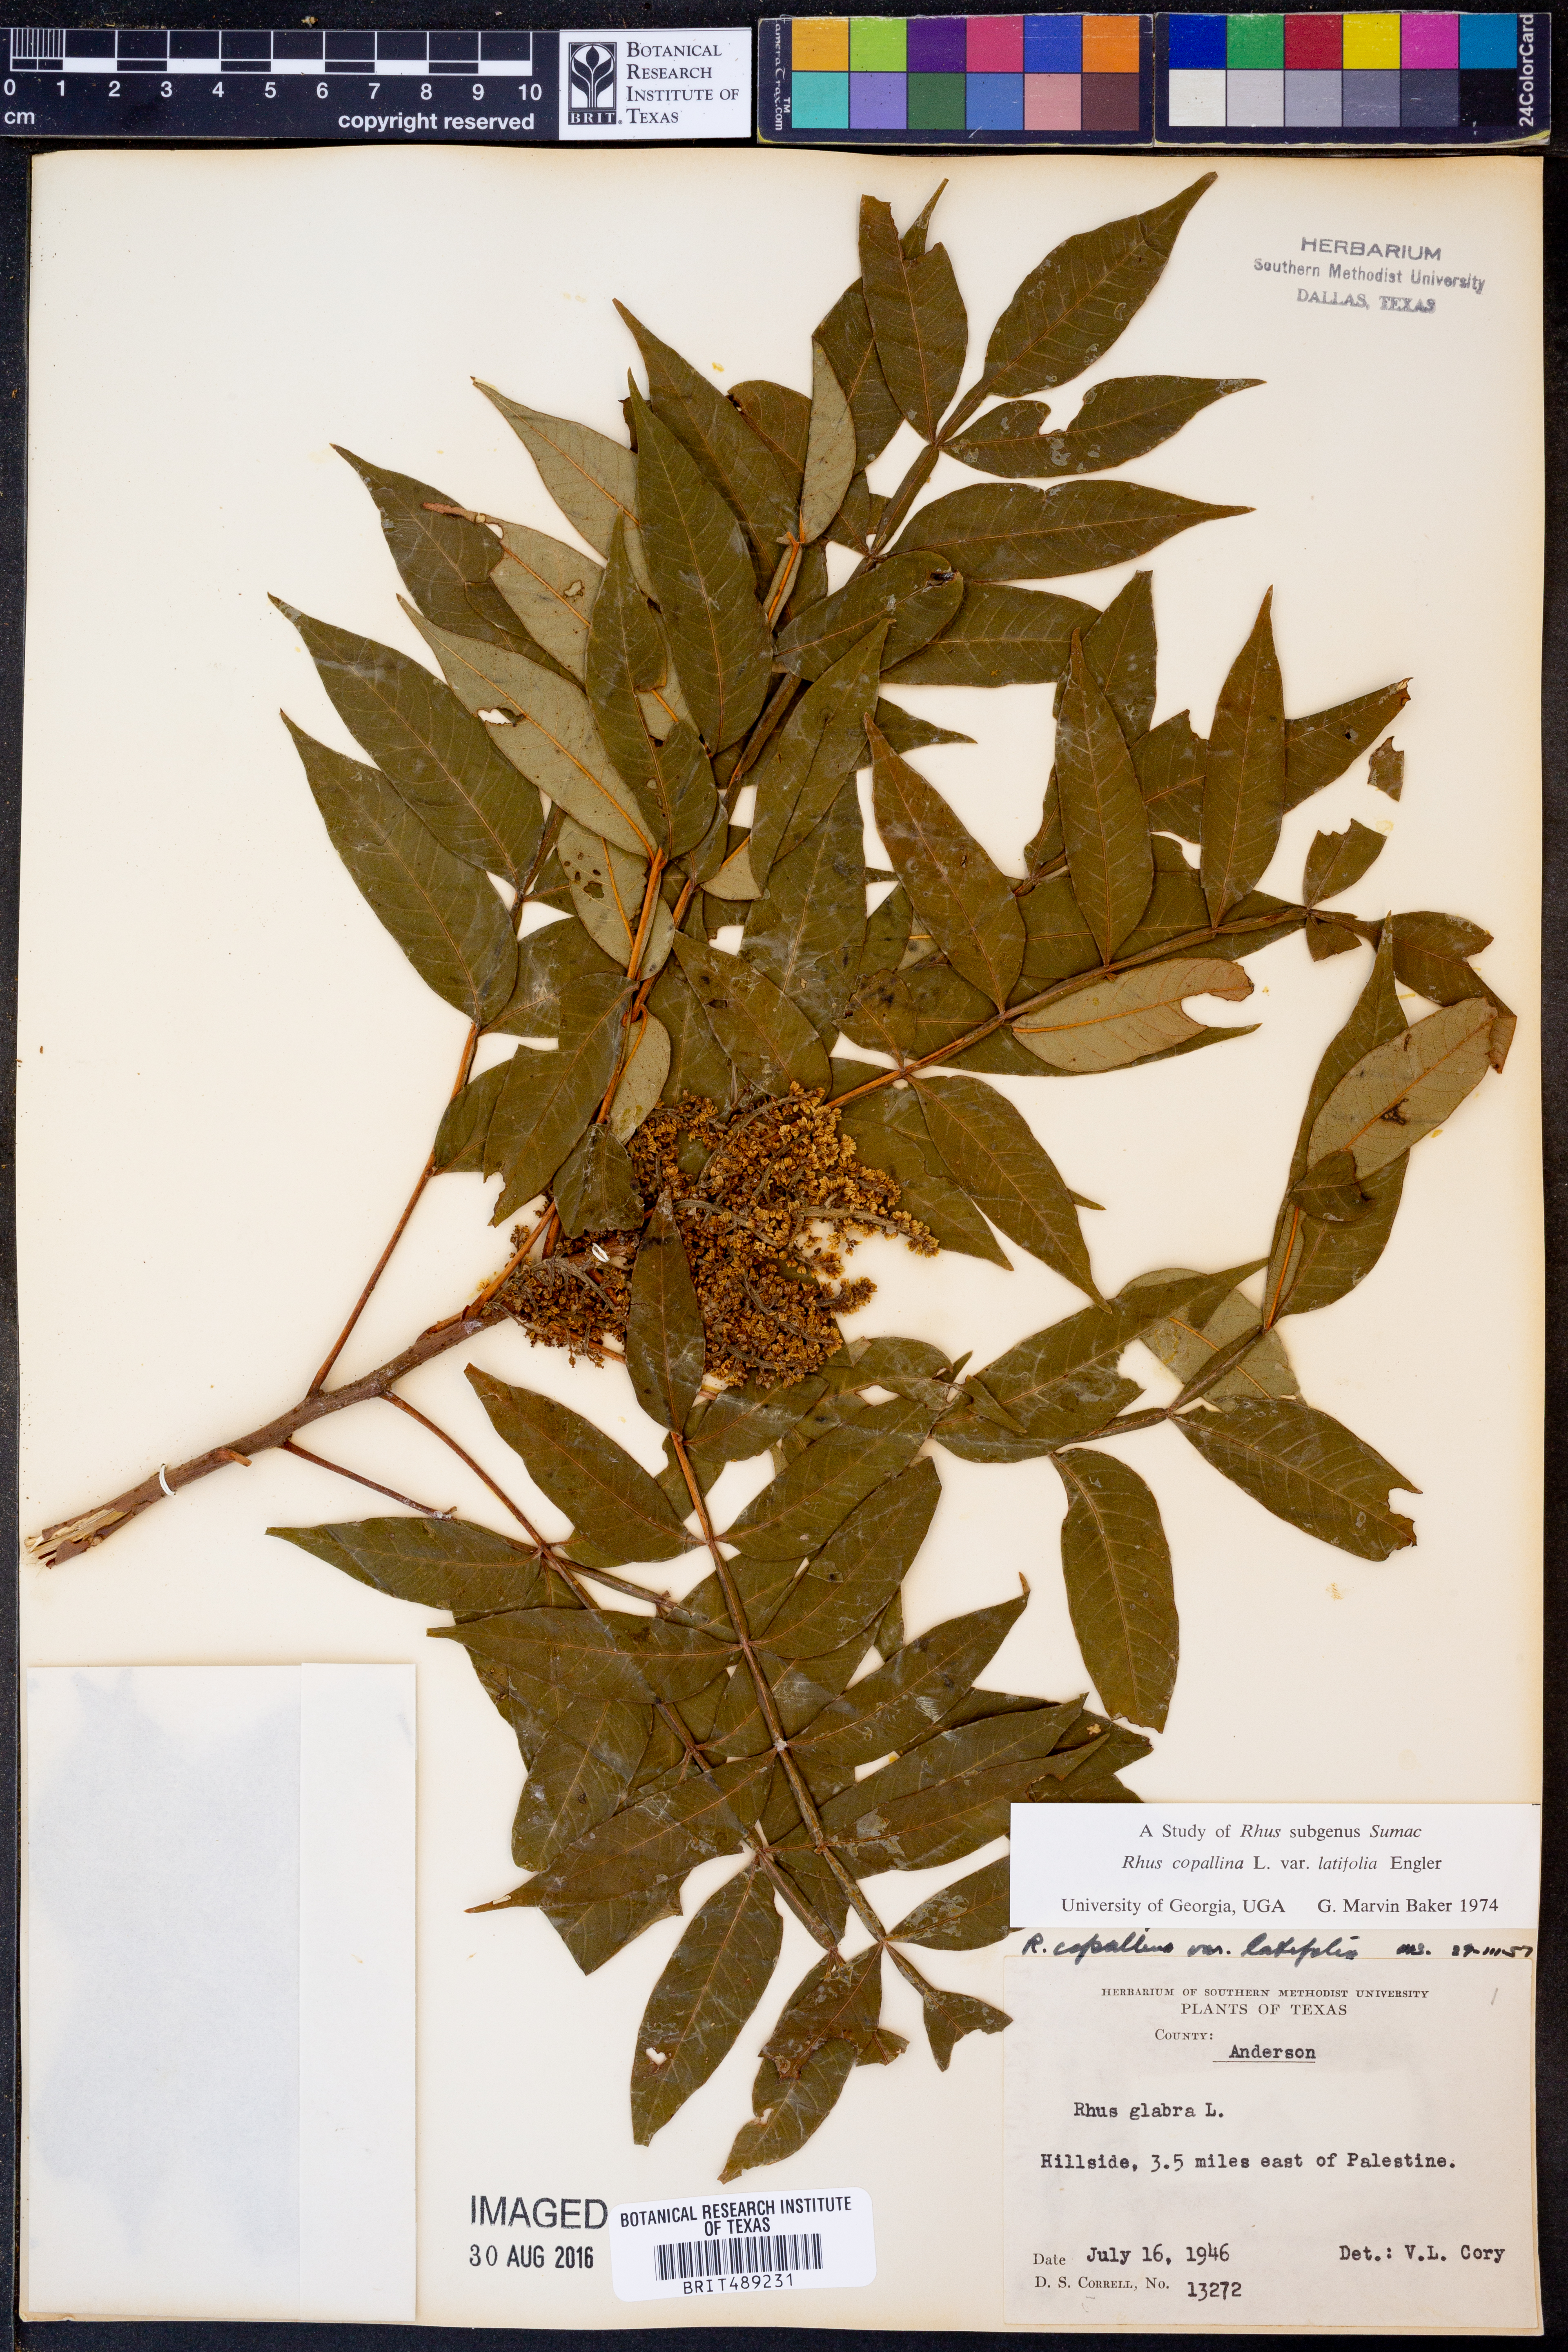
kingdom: Plantae
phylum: Tracheophyta
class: Magnoliopsida
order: Sapindales
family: Anacardiaceae
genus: Rhus
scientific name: Rhus copallina
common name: Shining sumac
